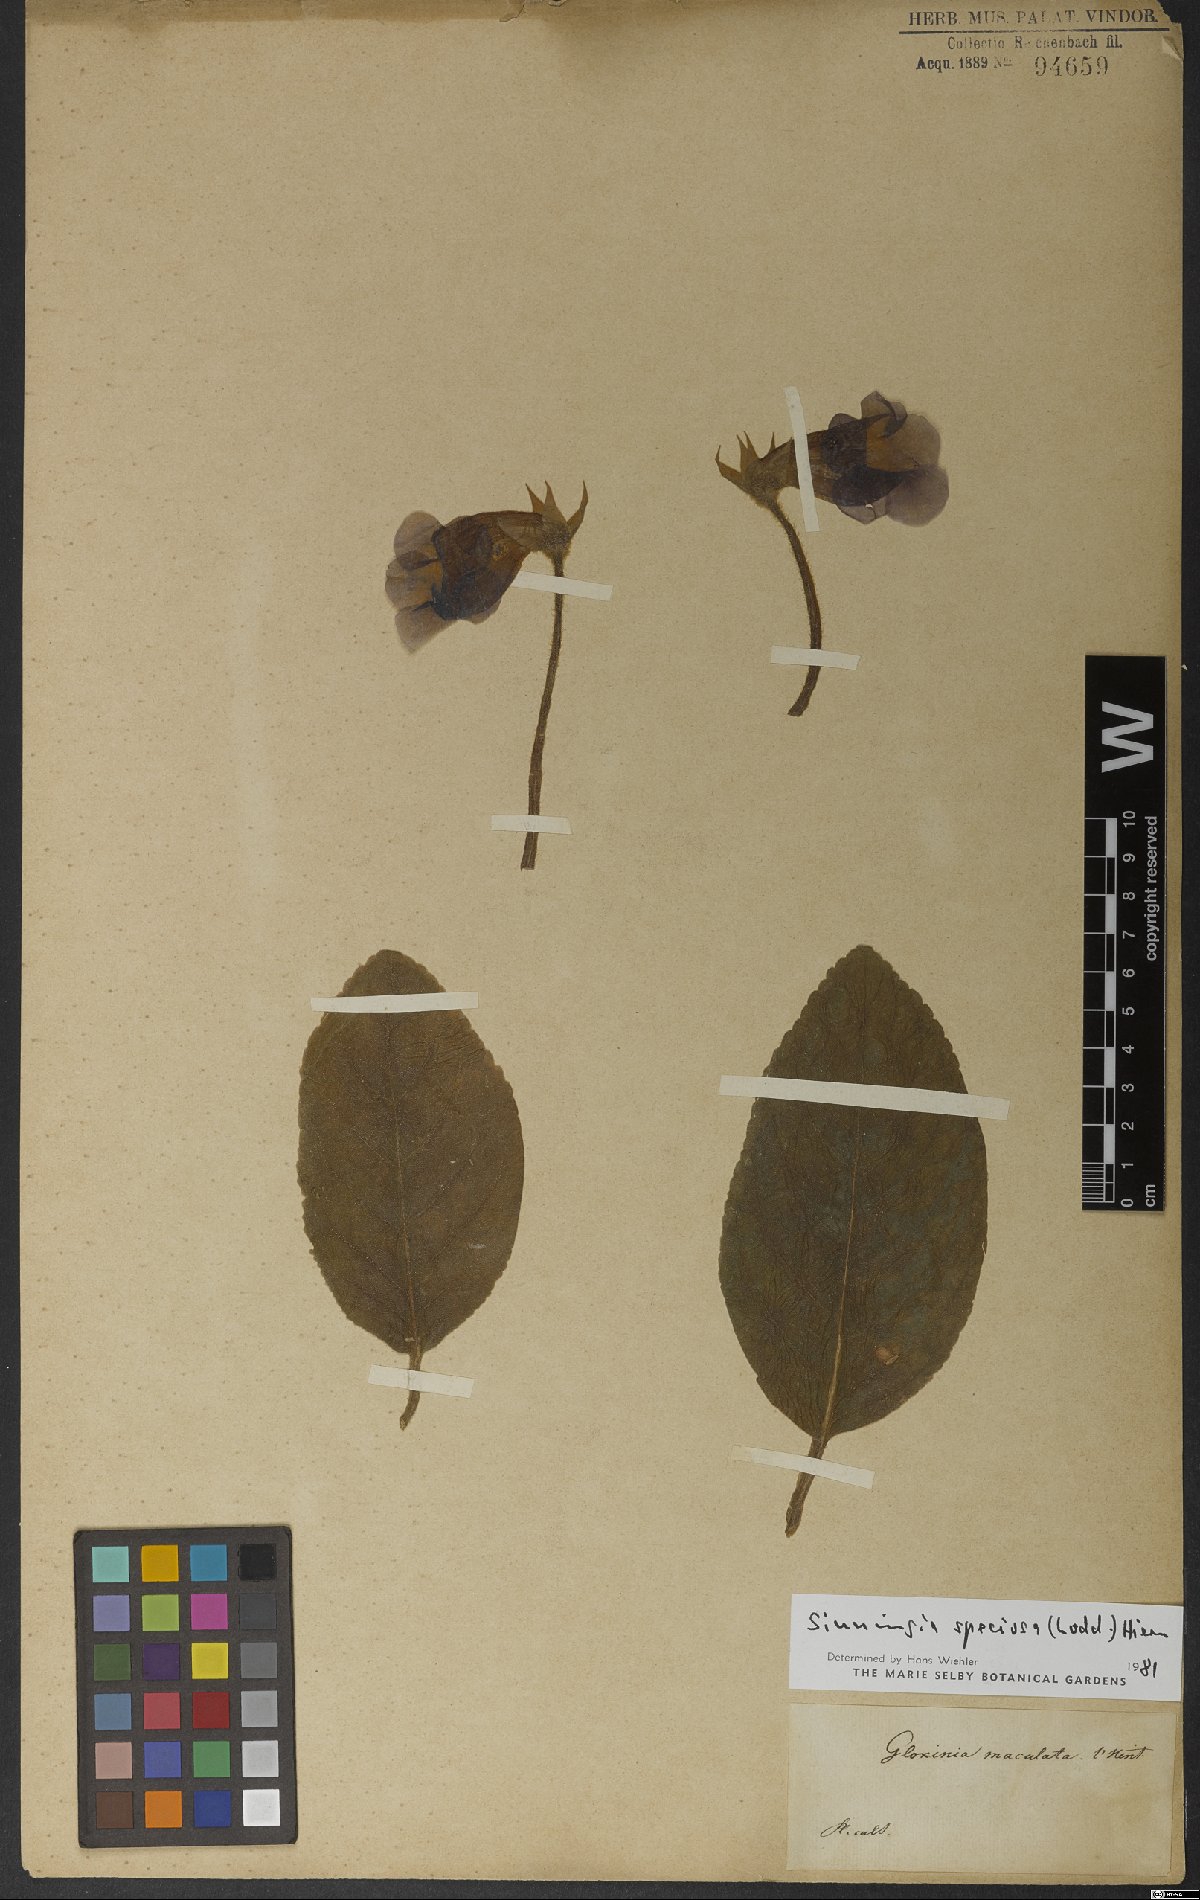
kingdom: Plantae
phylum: Tracheophyta
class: Magnoliopsida
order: Lamiales
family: Gesneriaceae
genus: Sinningia
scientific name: Sinningia speciosa
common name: Brazilian gloxinia
